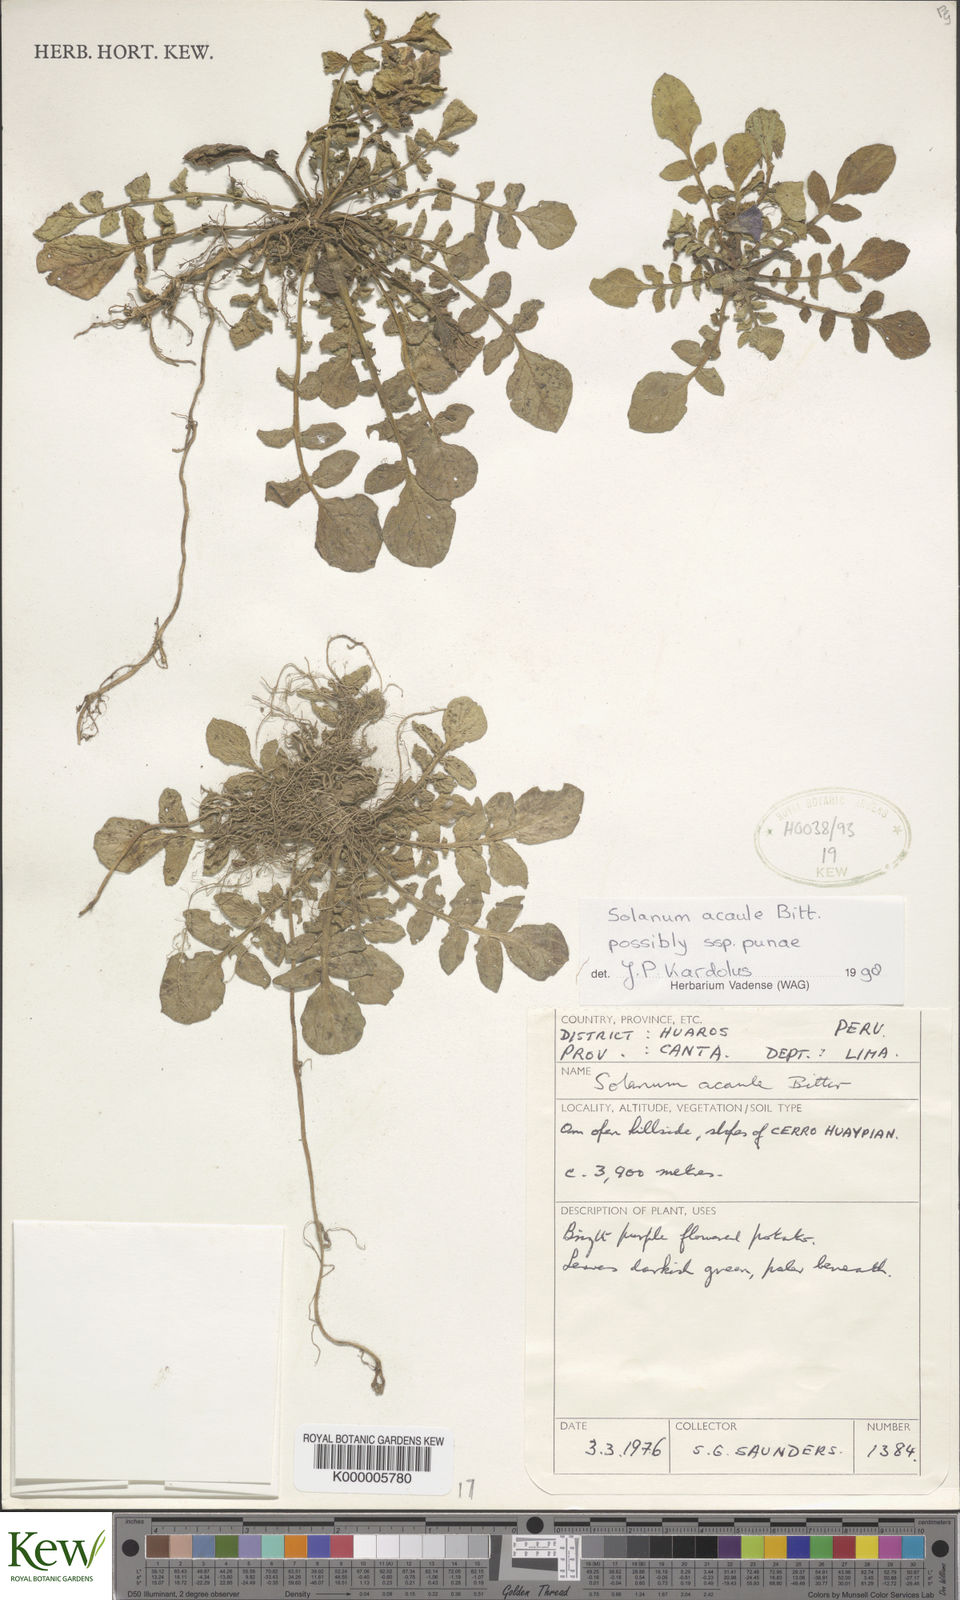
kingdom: Plantae
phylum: Tracheophyta
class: Magnoliopsida
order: Solanales
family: Solanaceae
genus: Solanum
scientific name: Solanum acaule
